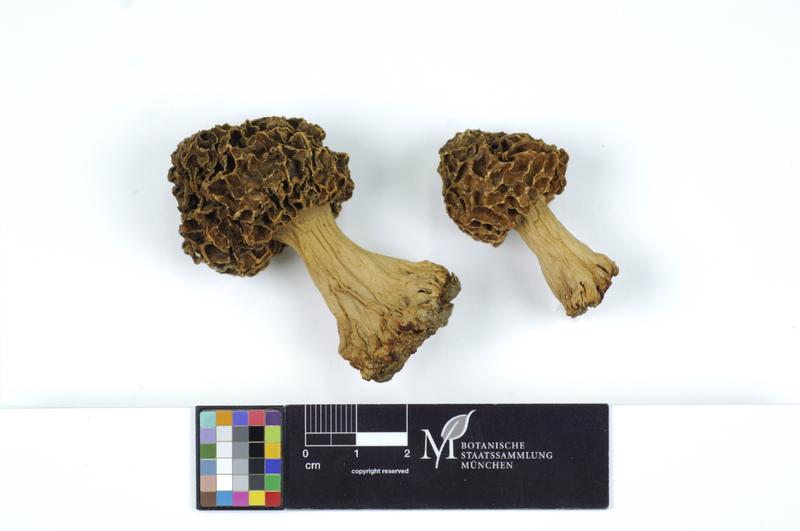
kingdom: Fungi
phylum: Ascomycota
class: Pezizomycetes
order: Pezizales
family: Morchellaceae
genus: Morchella
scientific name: Morchella esculenta
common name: Morel
